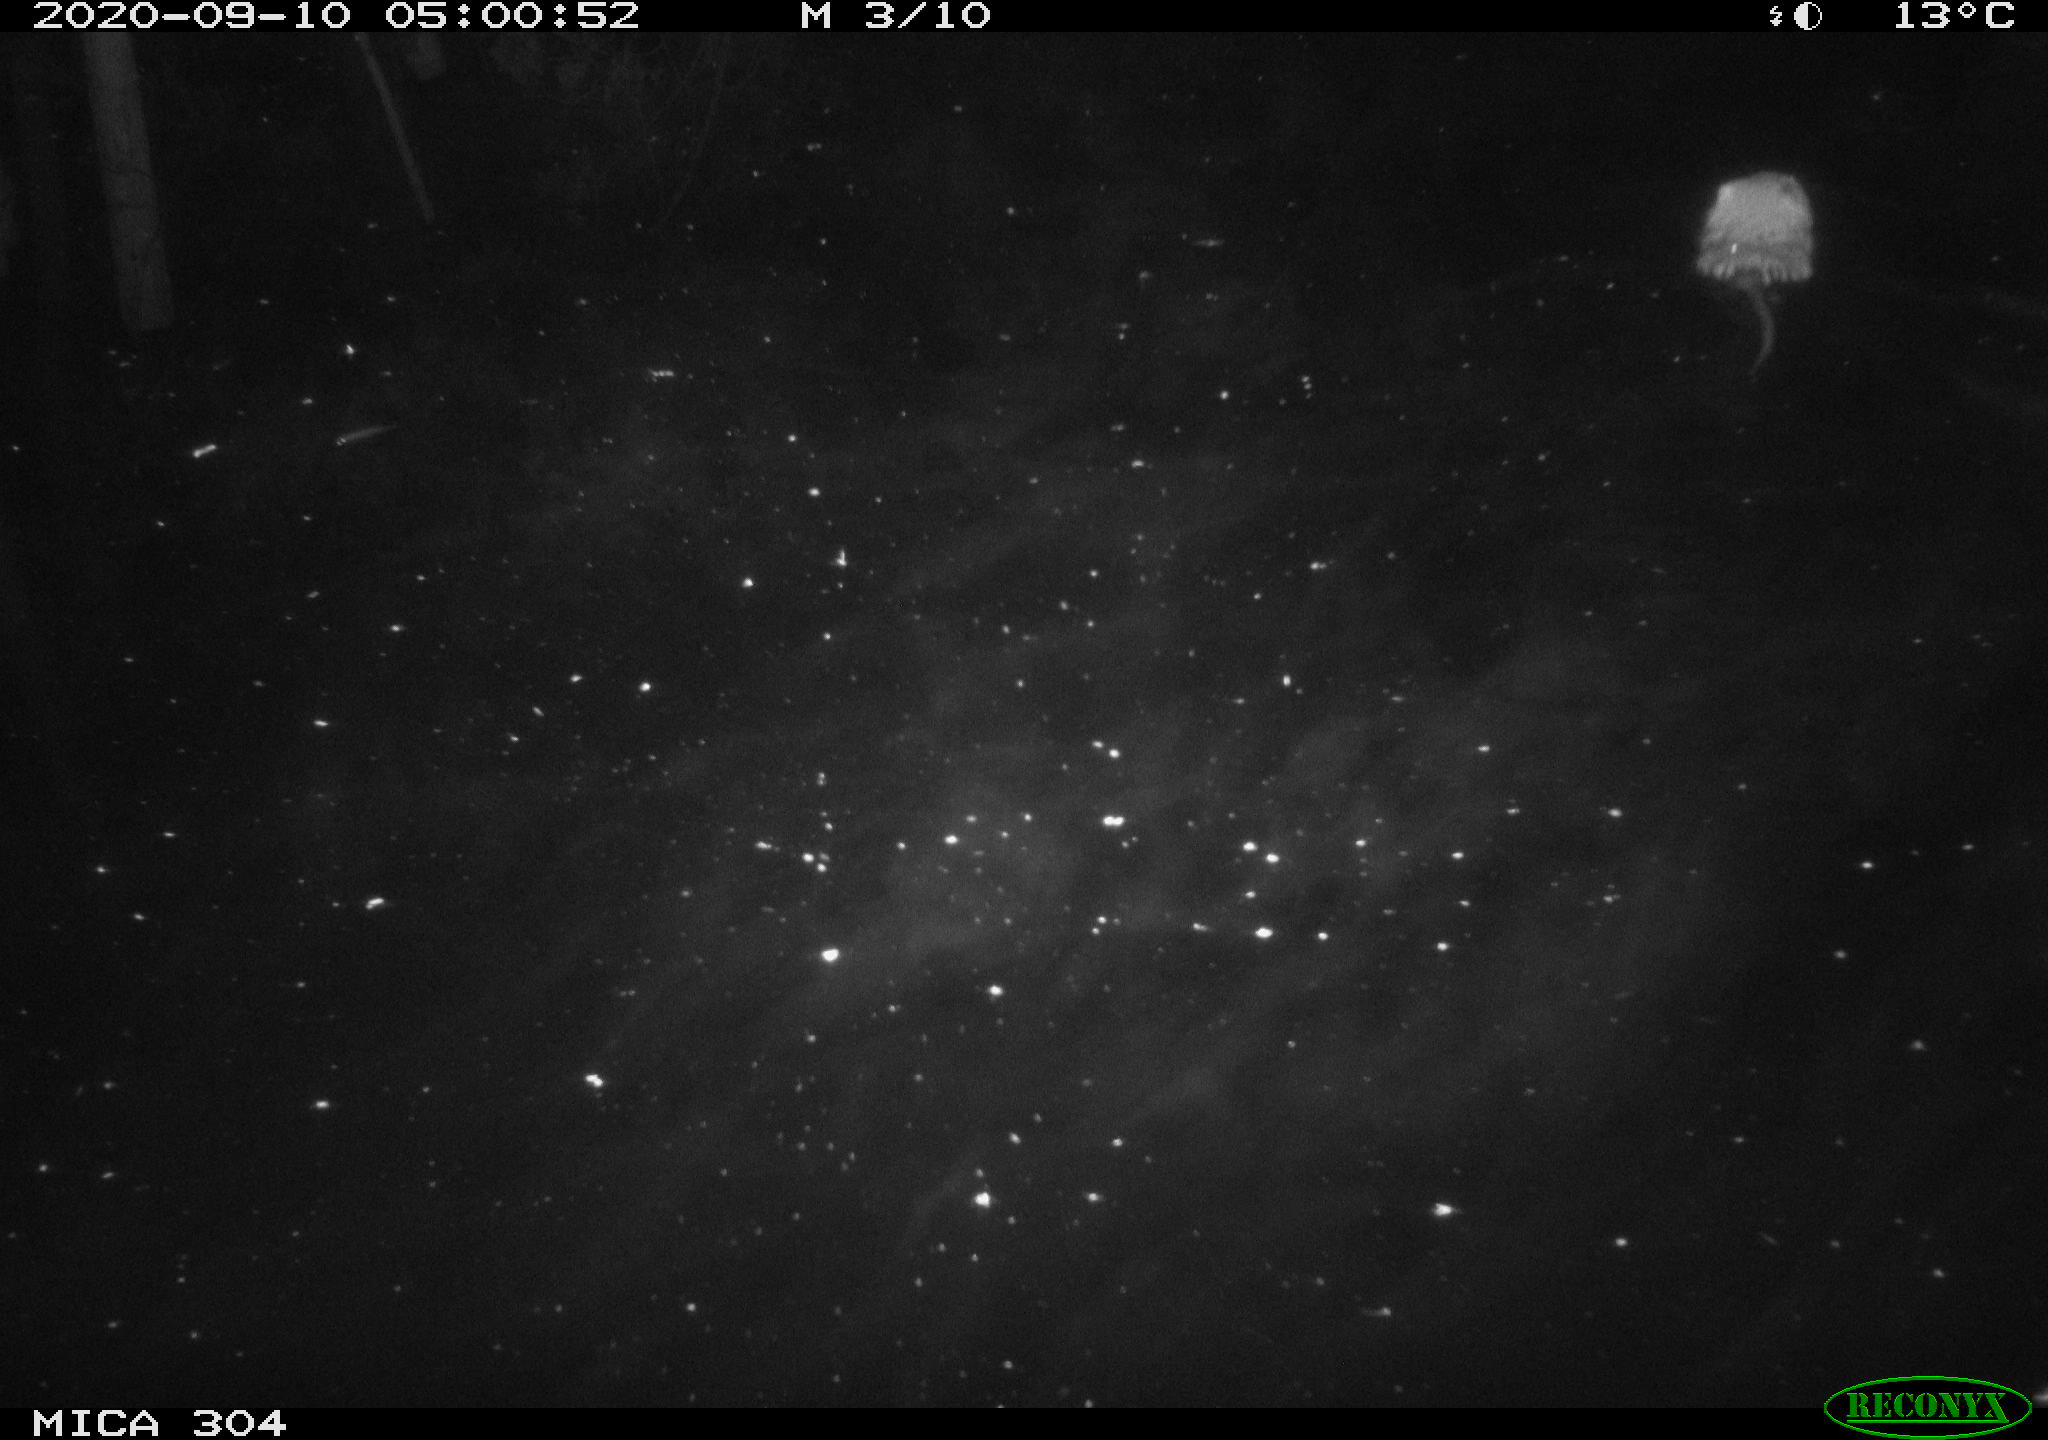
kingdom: Animalia
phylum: Chordata
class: Mammalia
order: Rodentia
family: Cricetidae
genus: Ondatra
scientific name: Ondatra zibethicus
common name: Muskrat
